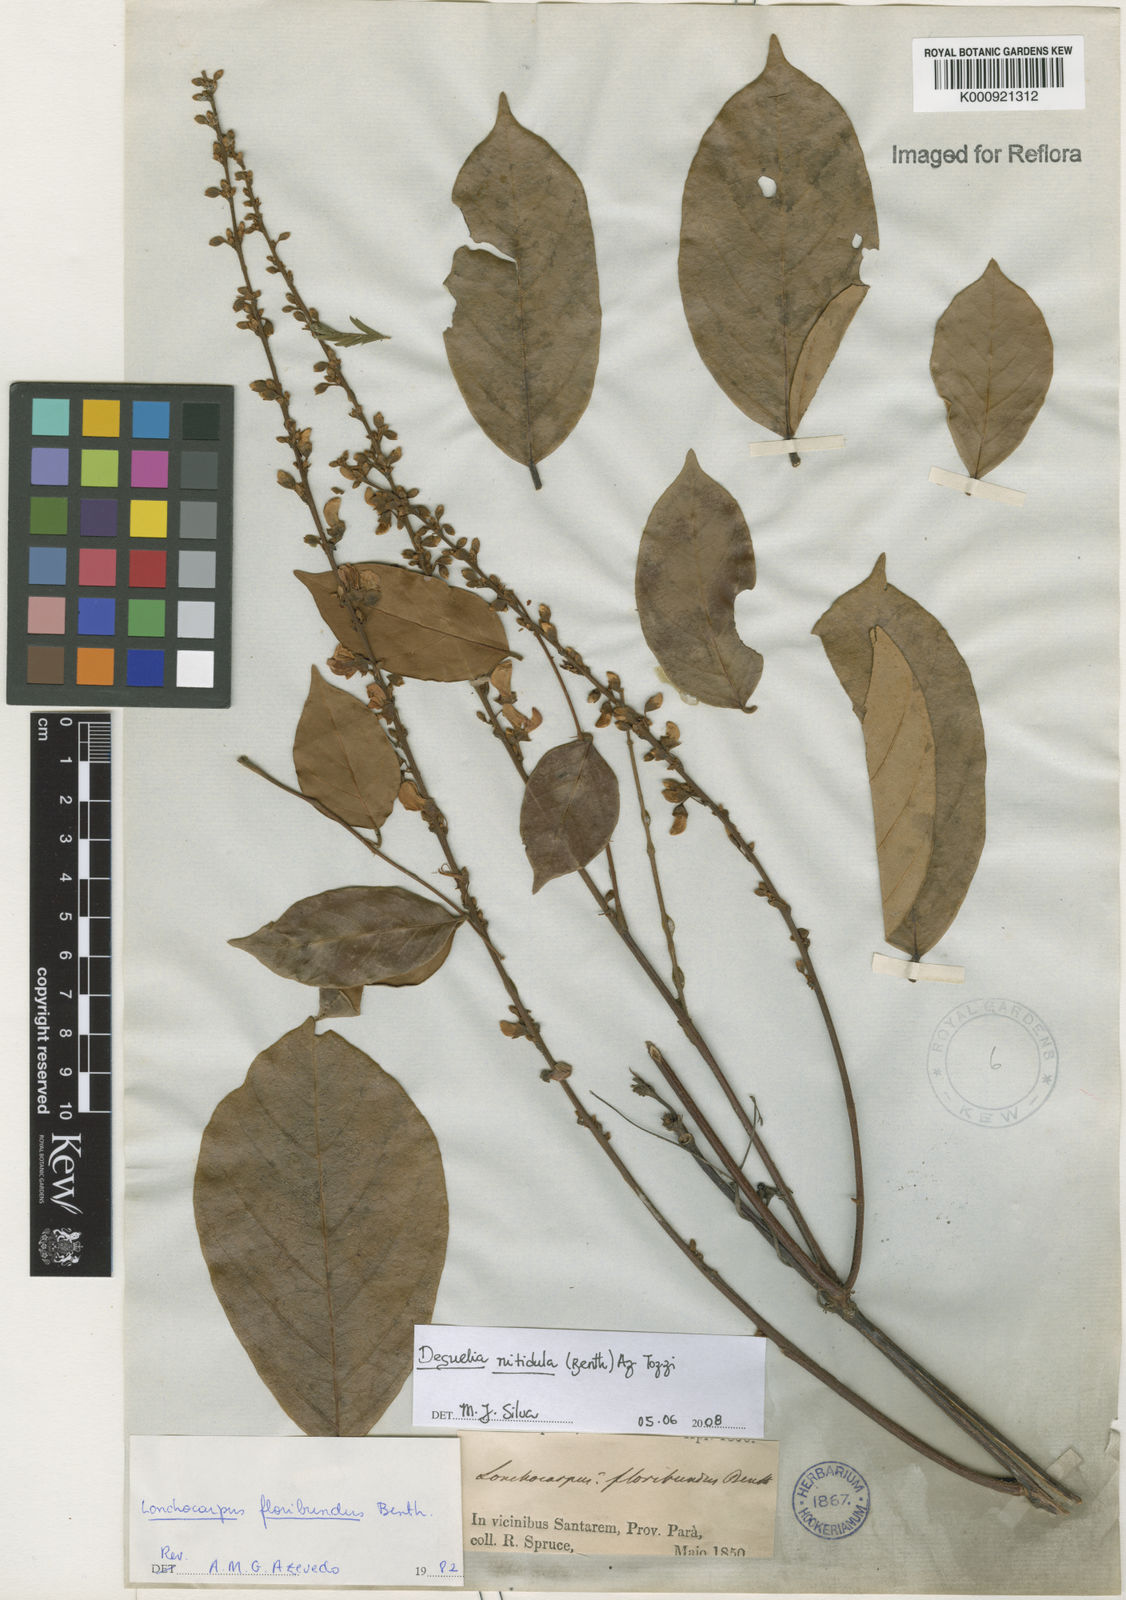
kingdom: Plantae
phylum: Tracheophyta
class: Magnoliopsida
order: Fabales
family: Fabaceae
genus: Deguelia
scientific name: Deguelia nitidula
